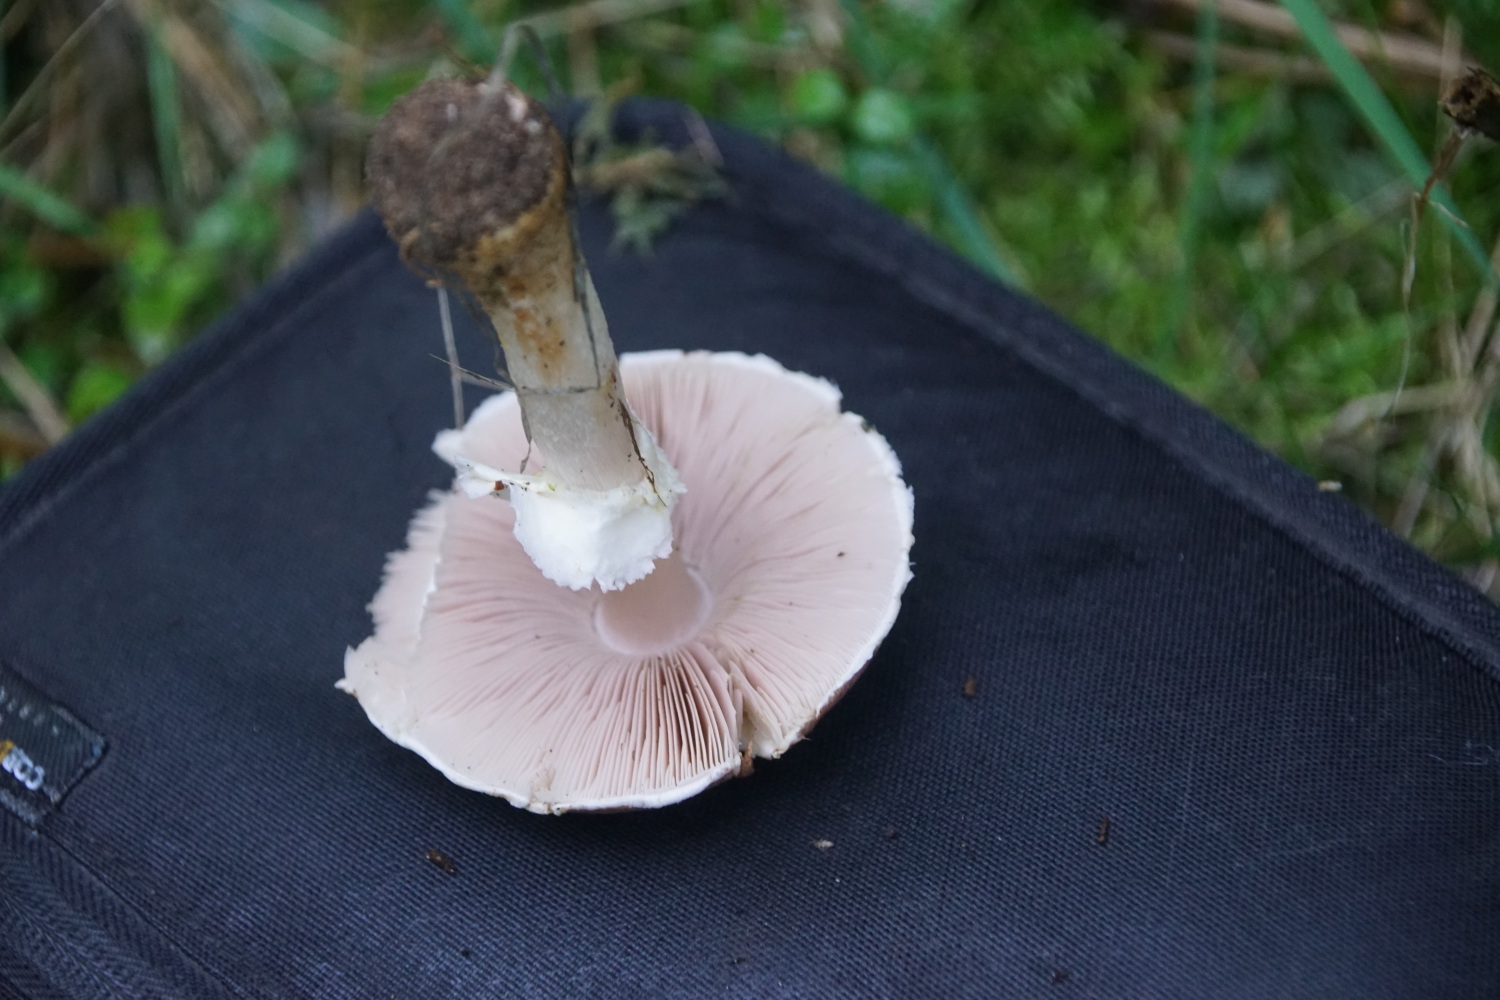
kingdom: Fungi
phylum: Basidiomycota
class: Agaricomycetes
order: Agaricales
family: Agaricaceae
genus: Agaricus
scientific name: Agaricus brunneolus
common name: purpur-champignon
